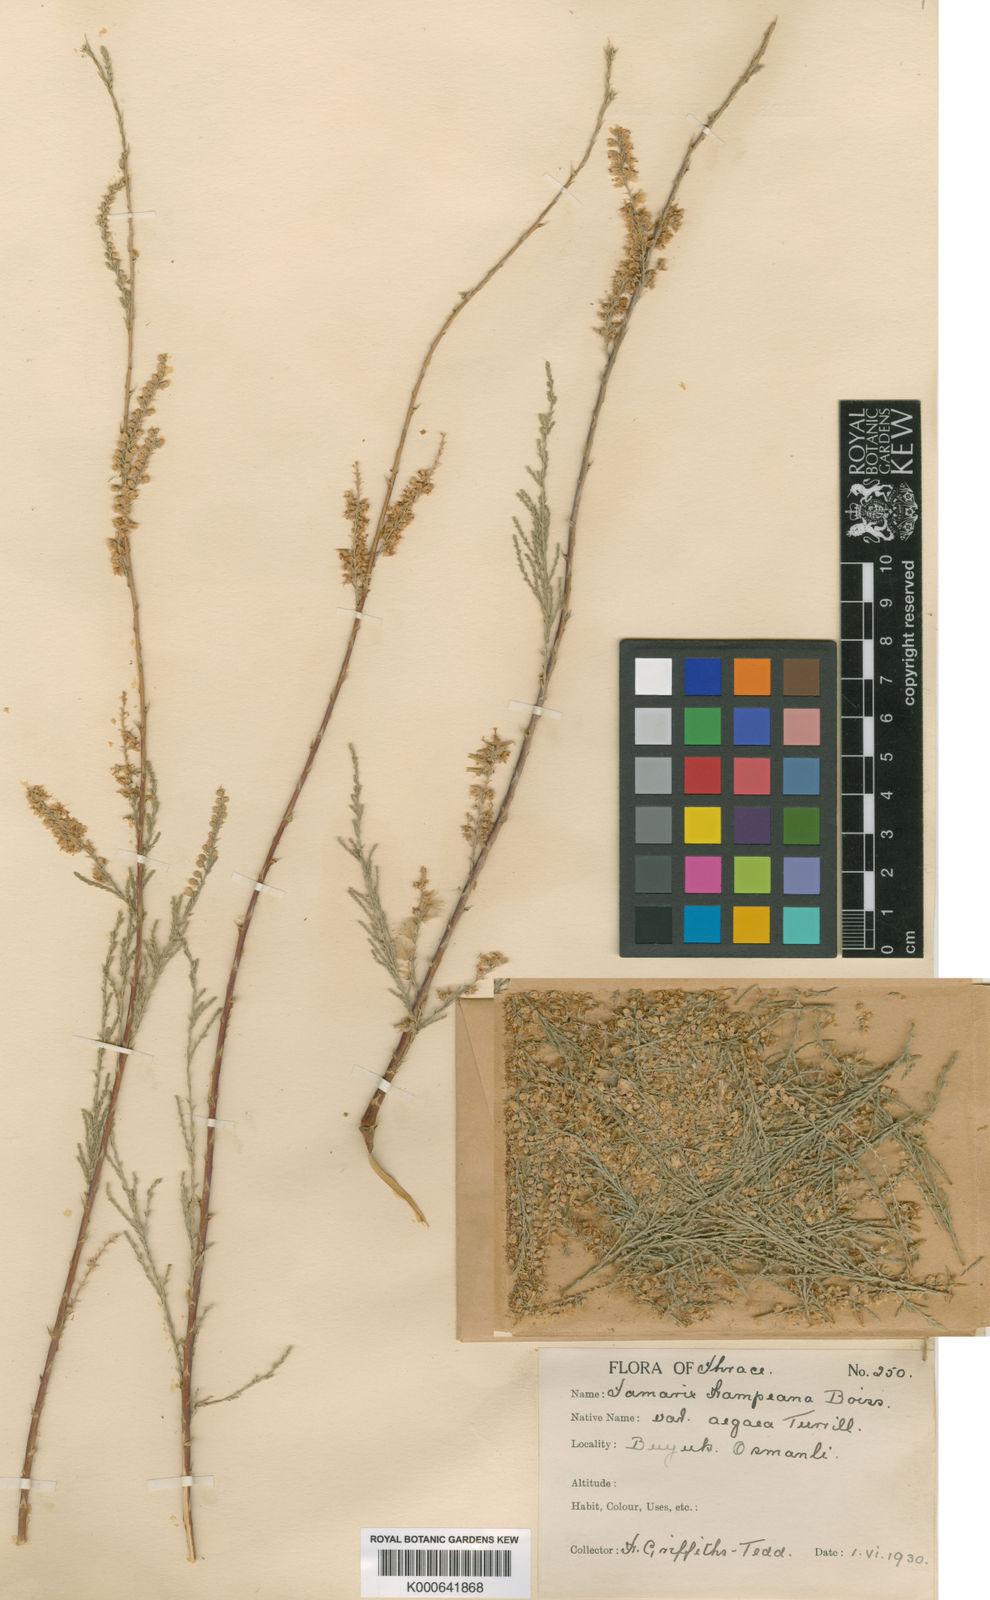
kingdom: Plantae
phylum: Tracheophyta
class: Magnoliopsida
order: Caryophyllales
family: Tamaricaceae
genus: Tamarix
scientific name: Tamarix hampeana
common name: Hampe’s tamarisk
